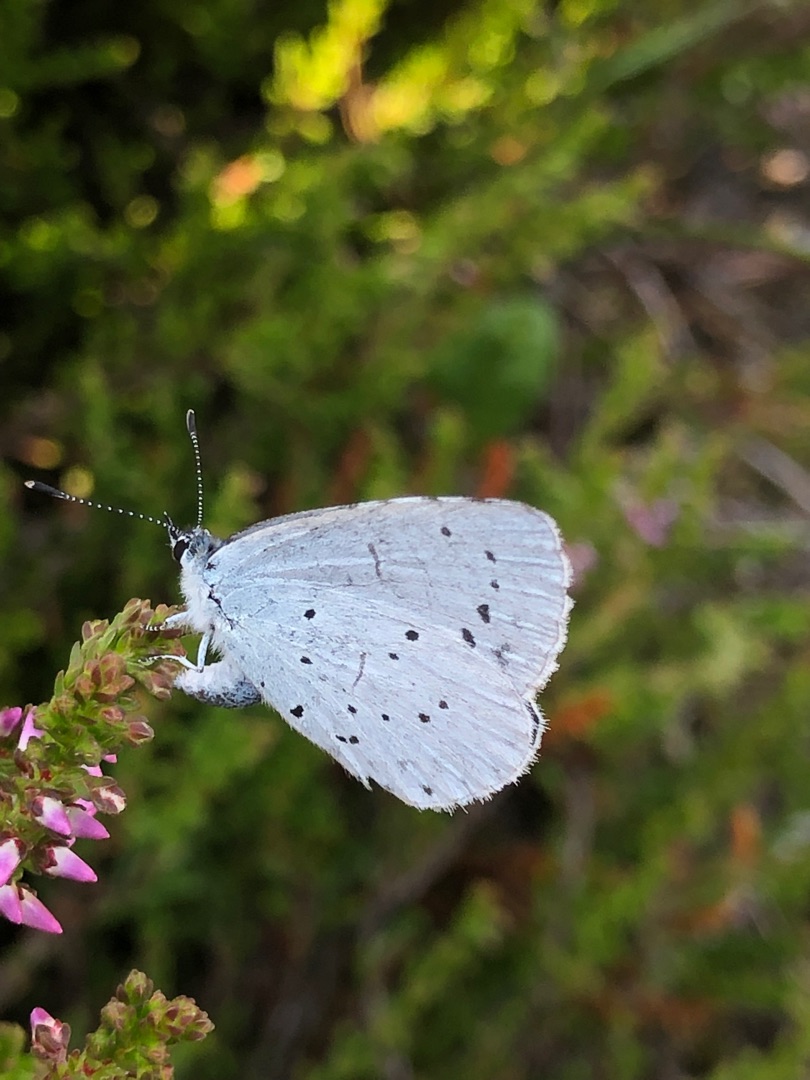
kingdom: Animalia
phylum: Arthropoda
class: Insecta
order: Lepidoptera
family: Lycaenidae
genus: Celastrina
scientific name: Celastrina argiolus
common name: Skovblåfugl
